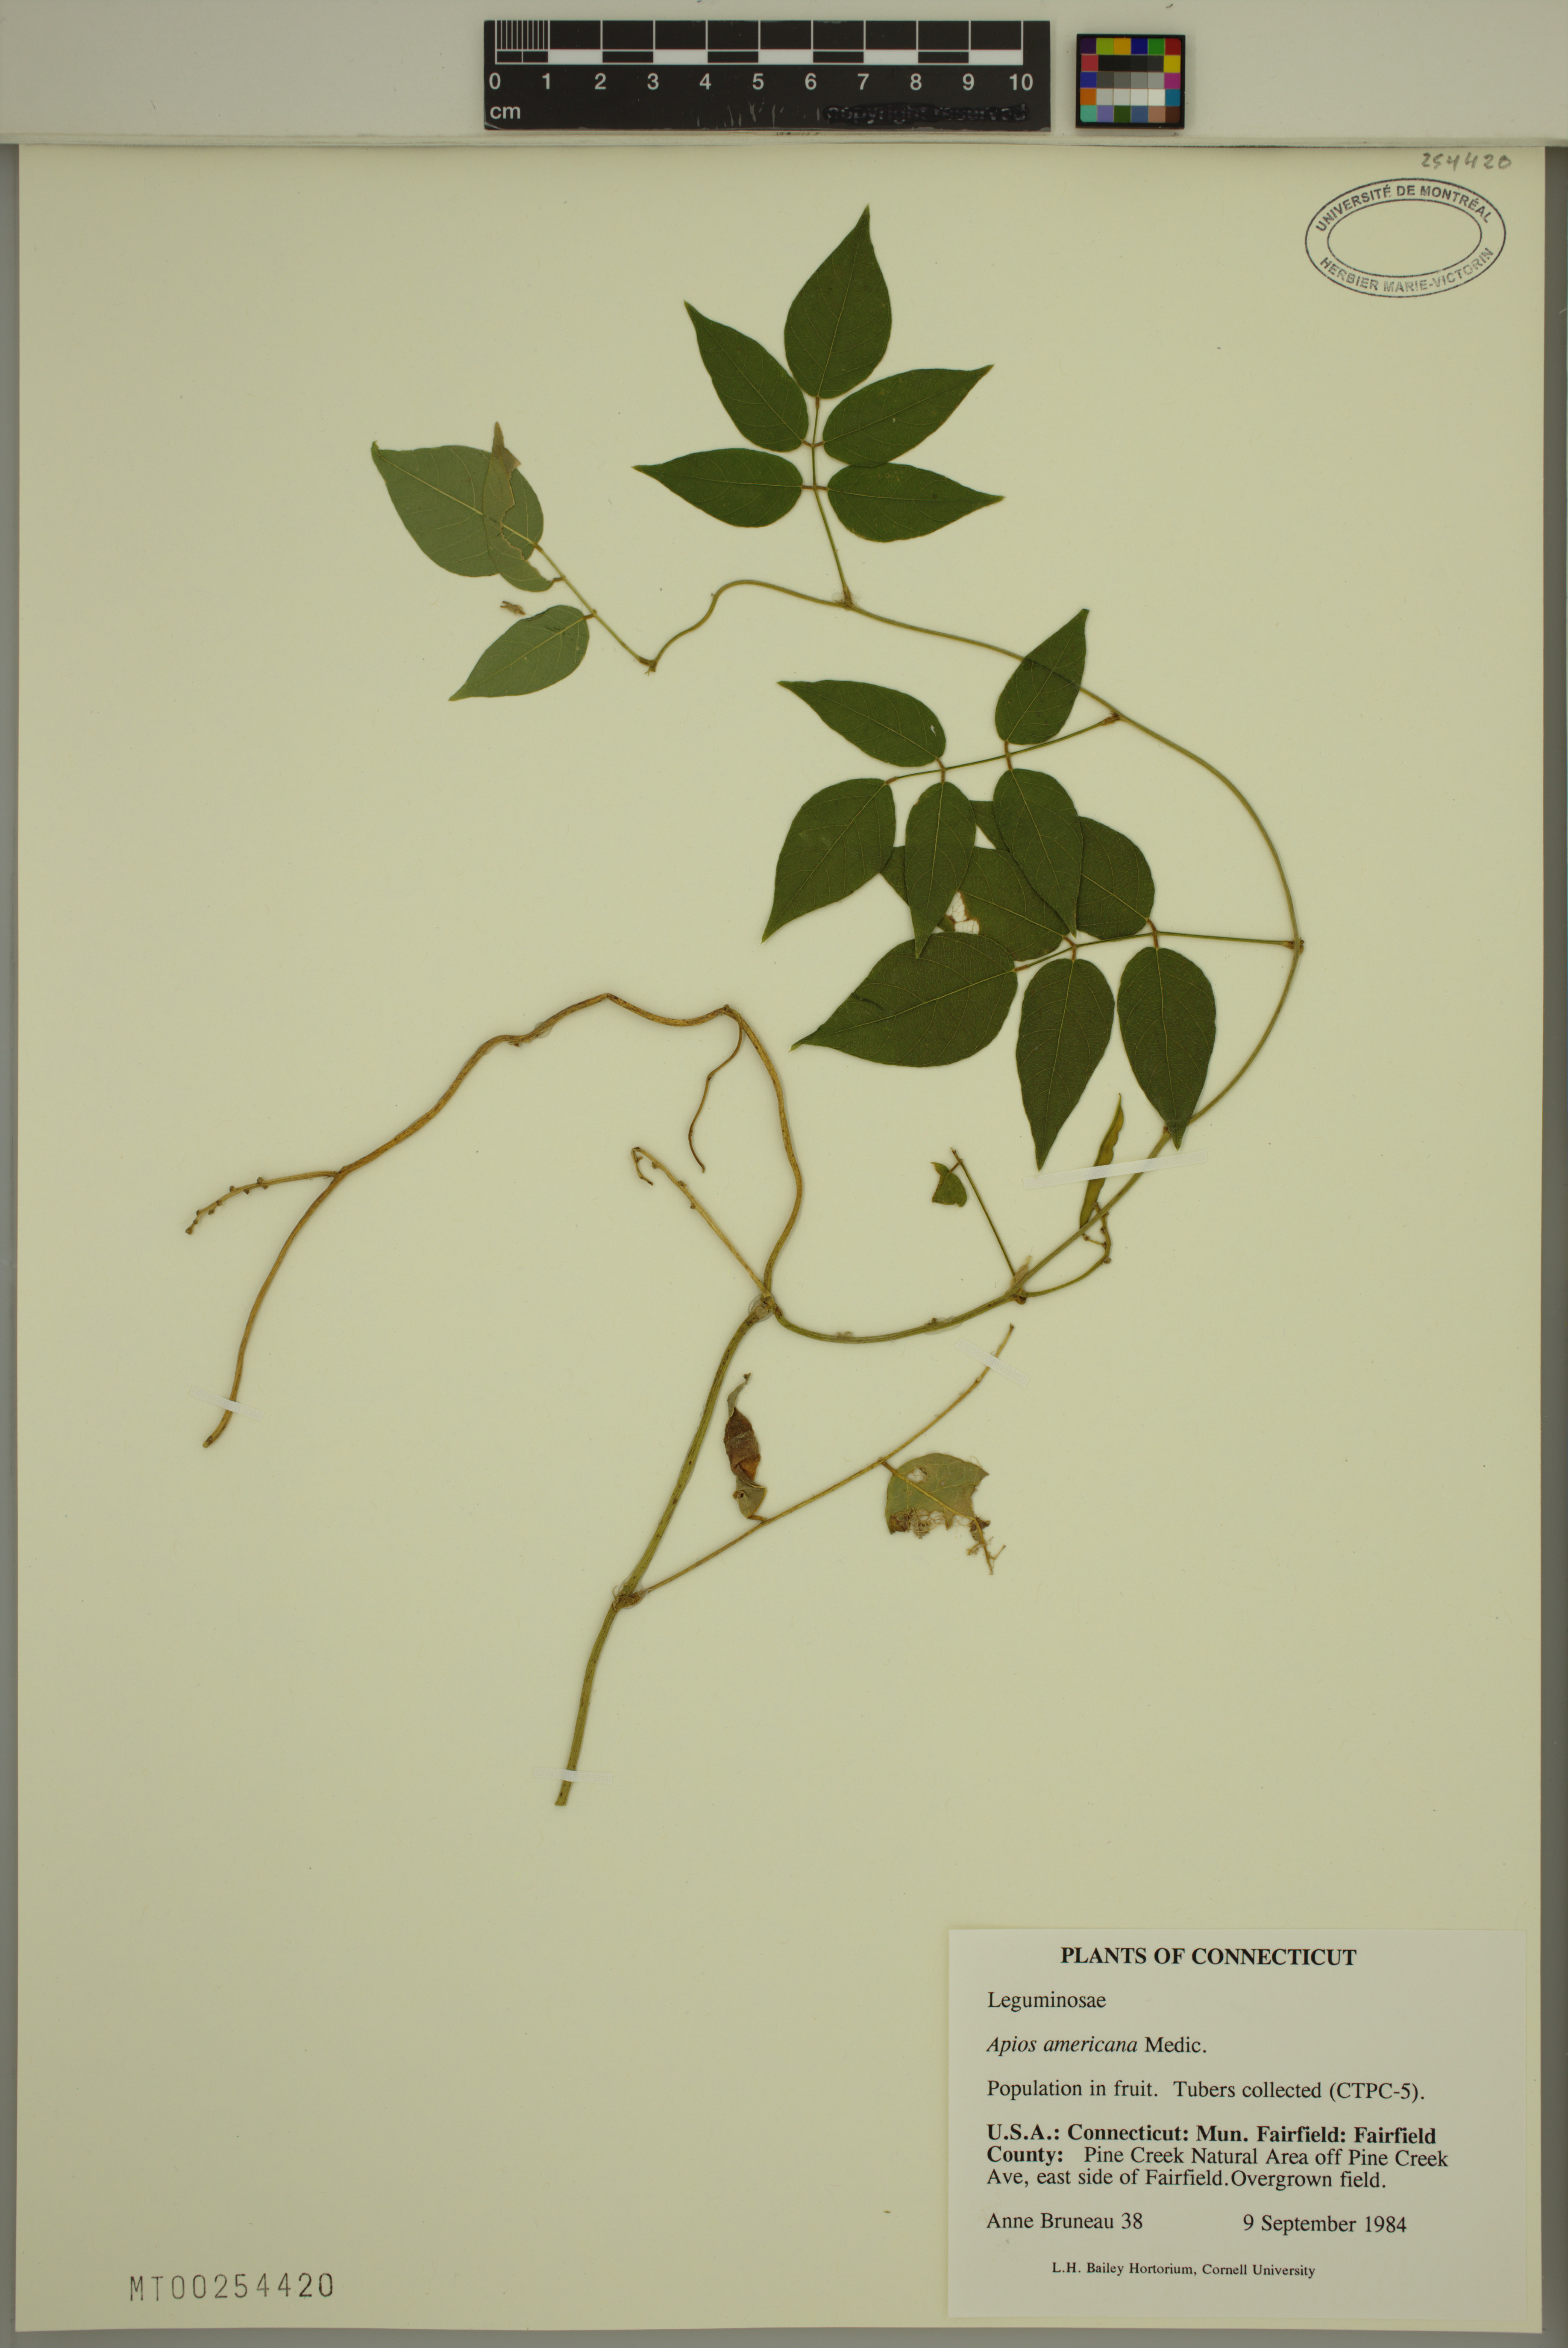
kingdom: Plantae
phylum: Tracheophyta
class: Magnoliopsida
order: Fabales
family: Fabaceae
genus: Apios
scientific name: Apios americana
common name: American potato-bean
